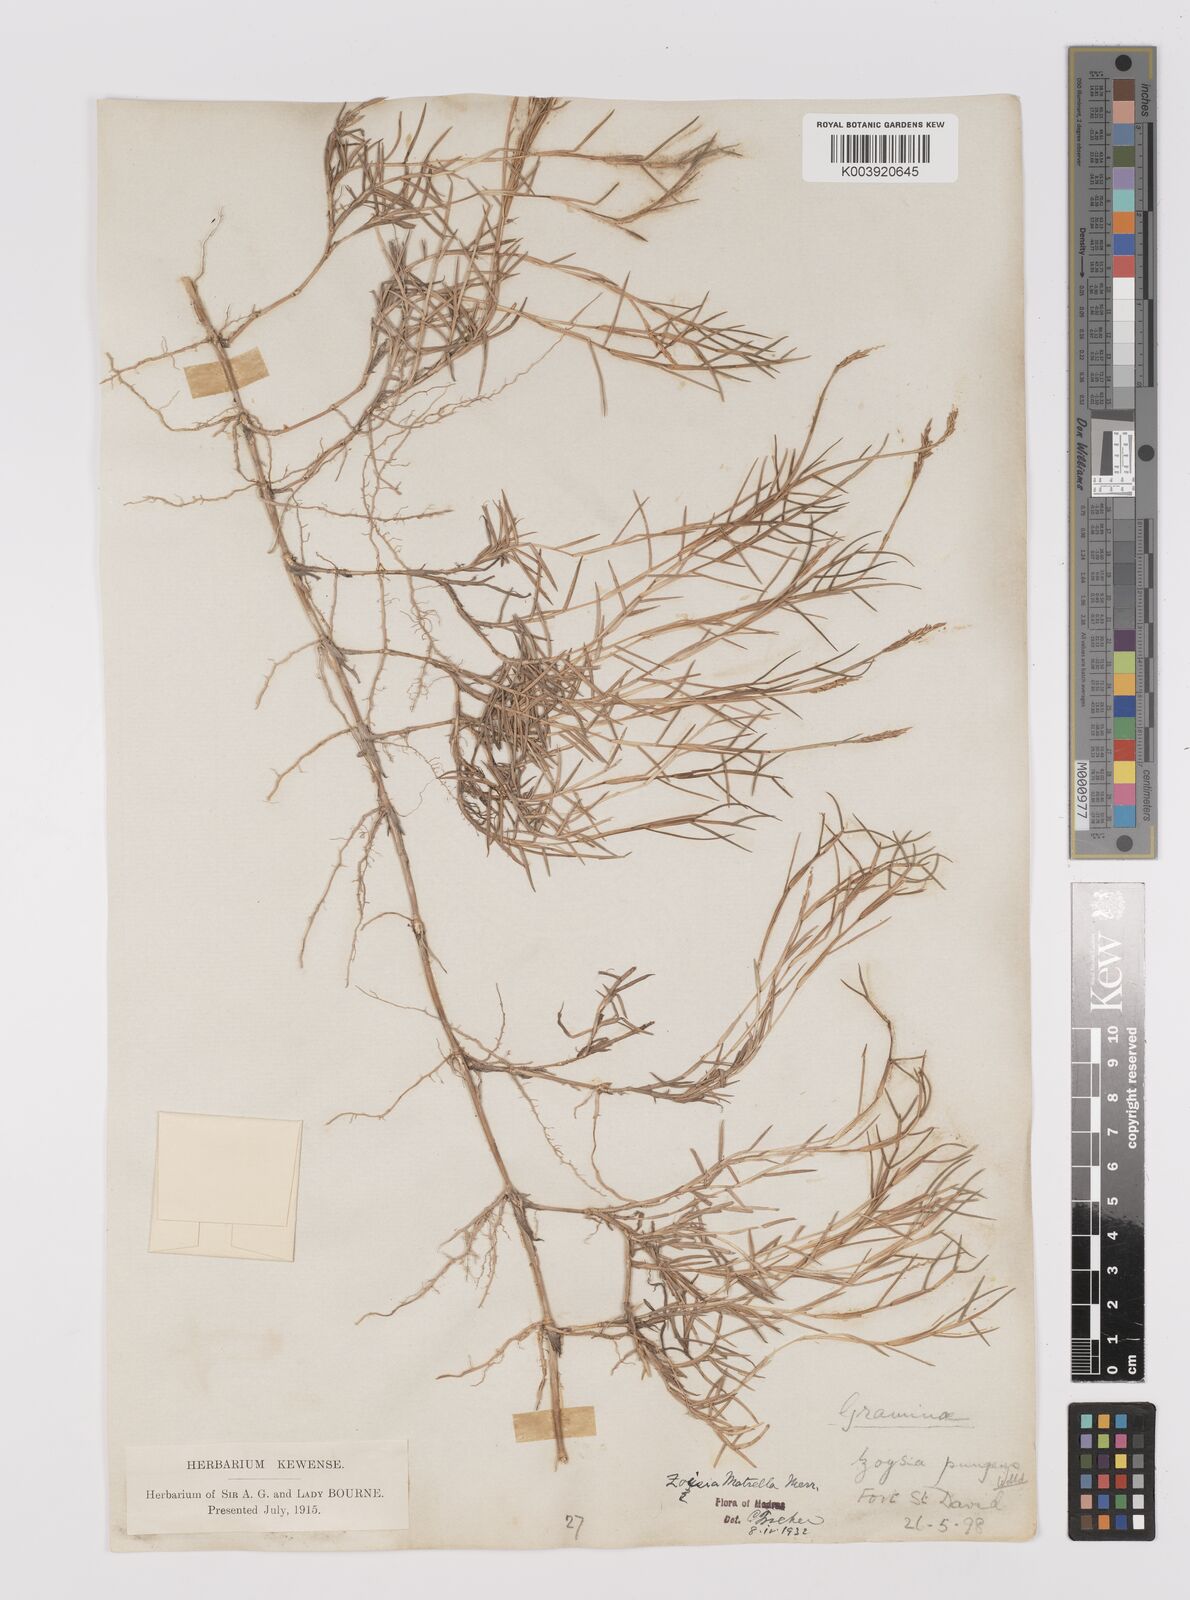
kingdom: Plantae
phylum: Tracheophyta
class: Liliopsida
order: Poales
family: Poaceae
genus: Zoysia
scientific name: Zoysia matrella
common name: Manila grass
